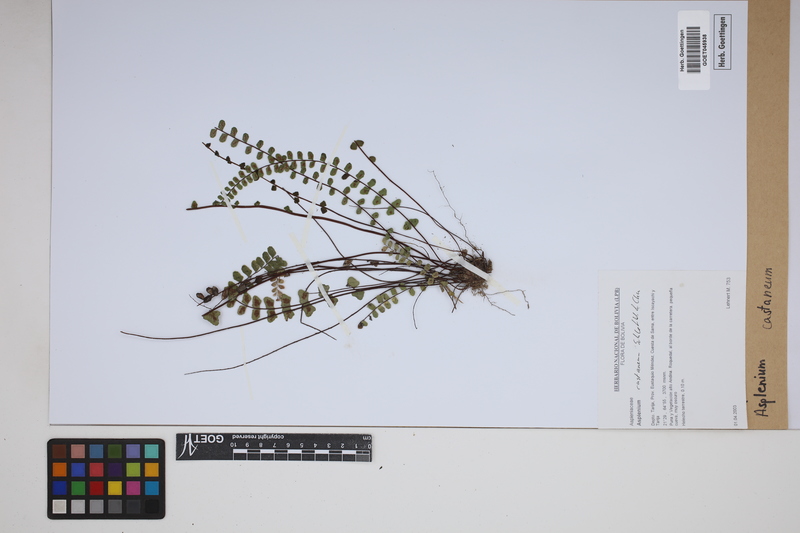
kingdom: Plantae
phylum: Tracheophyta
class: Polypodiopsida
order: Polypodiales
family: Aspleniaceae
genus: Asplenium
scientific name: Asplenium castaneum
